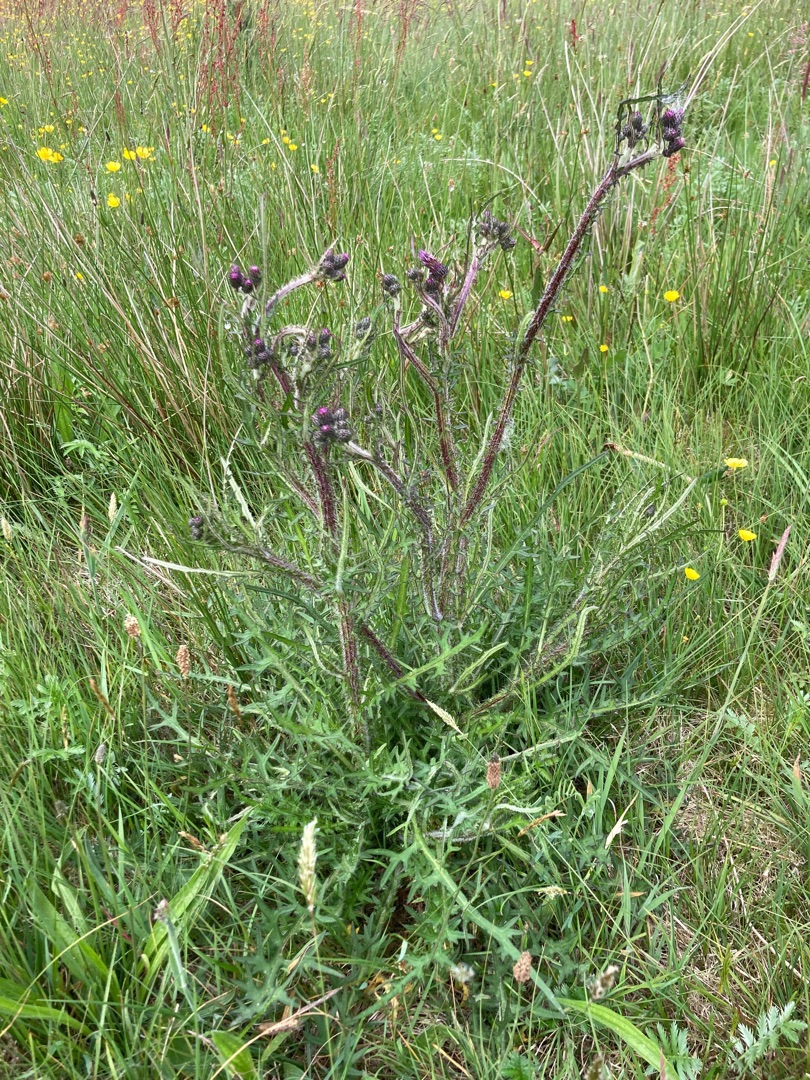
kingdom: Plantae
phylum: Tracheophyta
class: Magnoliopsida
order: Asterales
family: Asteraceae
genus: Cirsium
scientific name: Cirsium palustre
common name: Kær-tidsel
